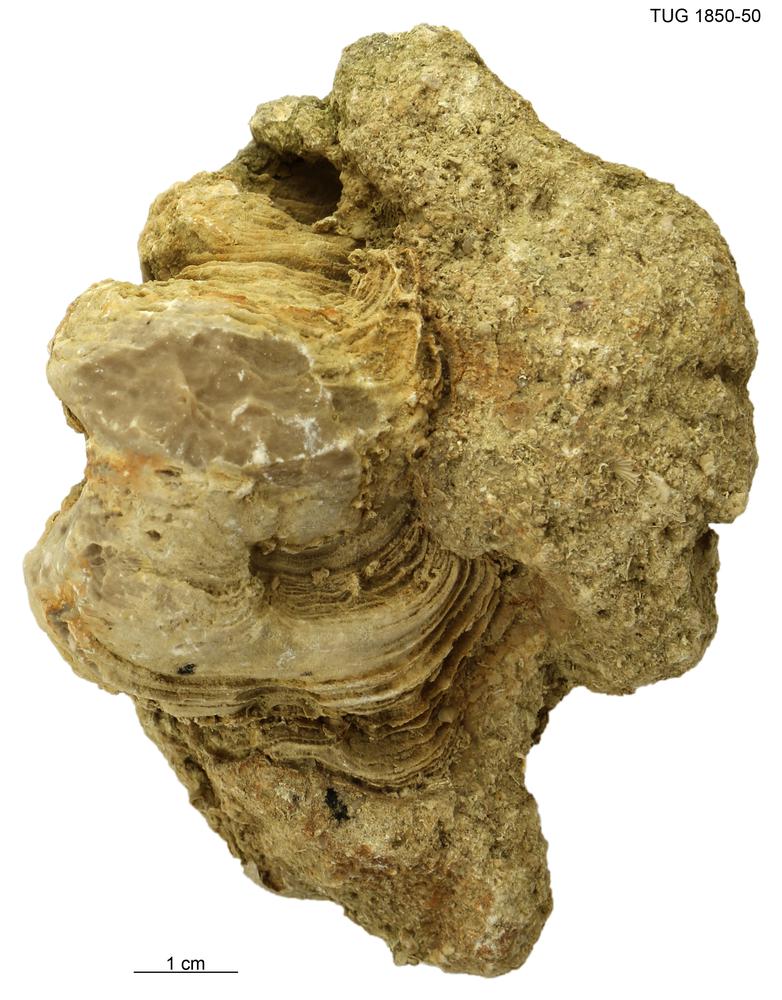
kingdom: Animalia
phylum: Porifera
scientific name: Porifera
